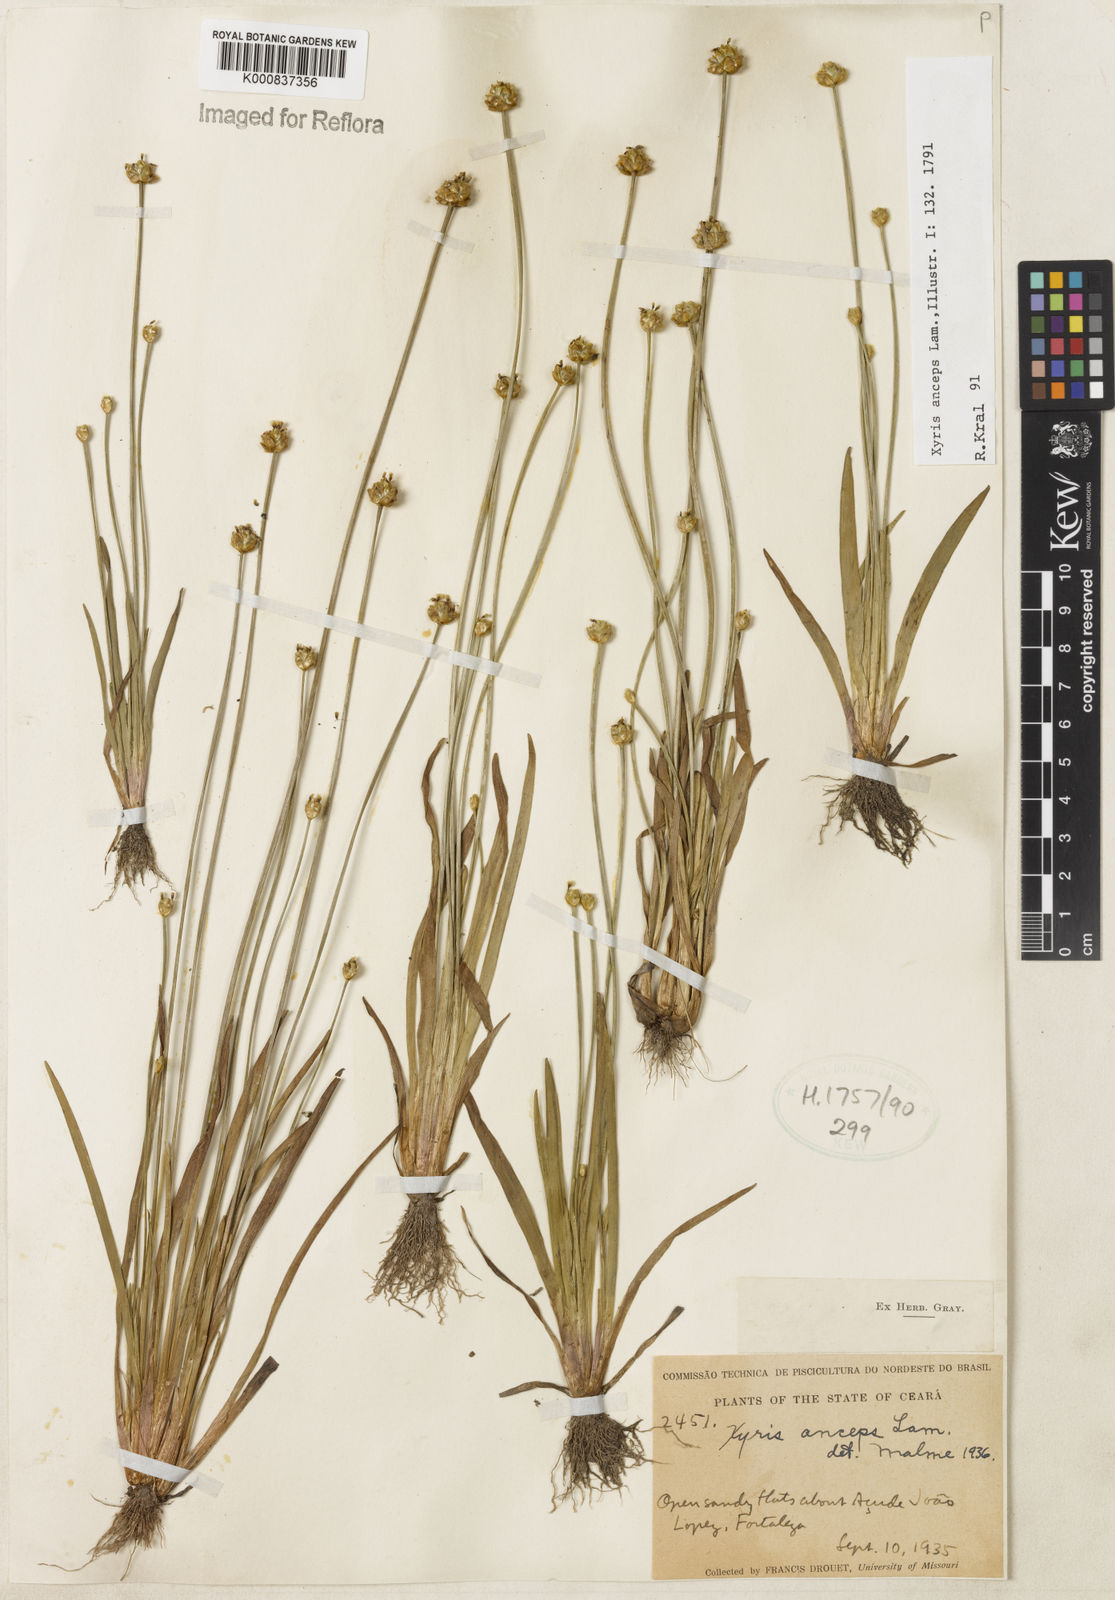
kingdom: Plantae
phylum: Tracheophyta
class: Liliopsida
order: Poales
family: Xyridaceae
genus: Xyris
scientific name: Xyris
